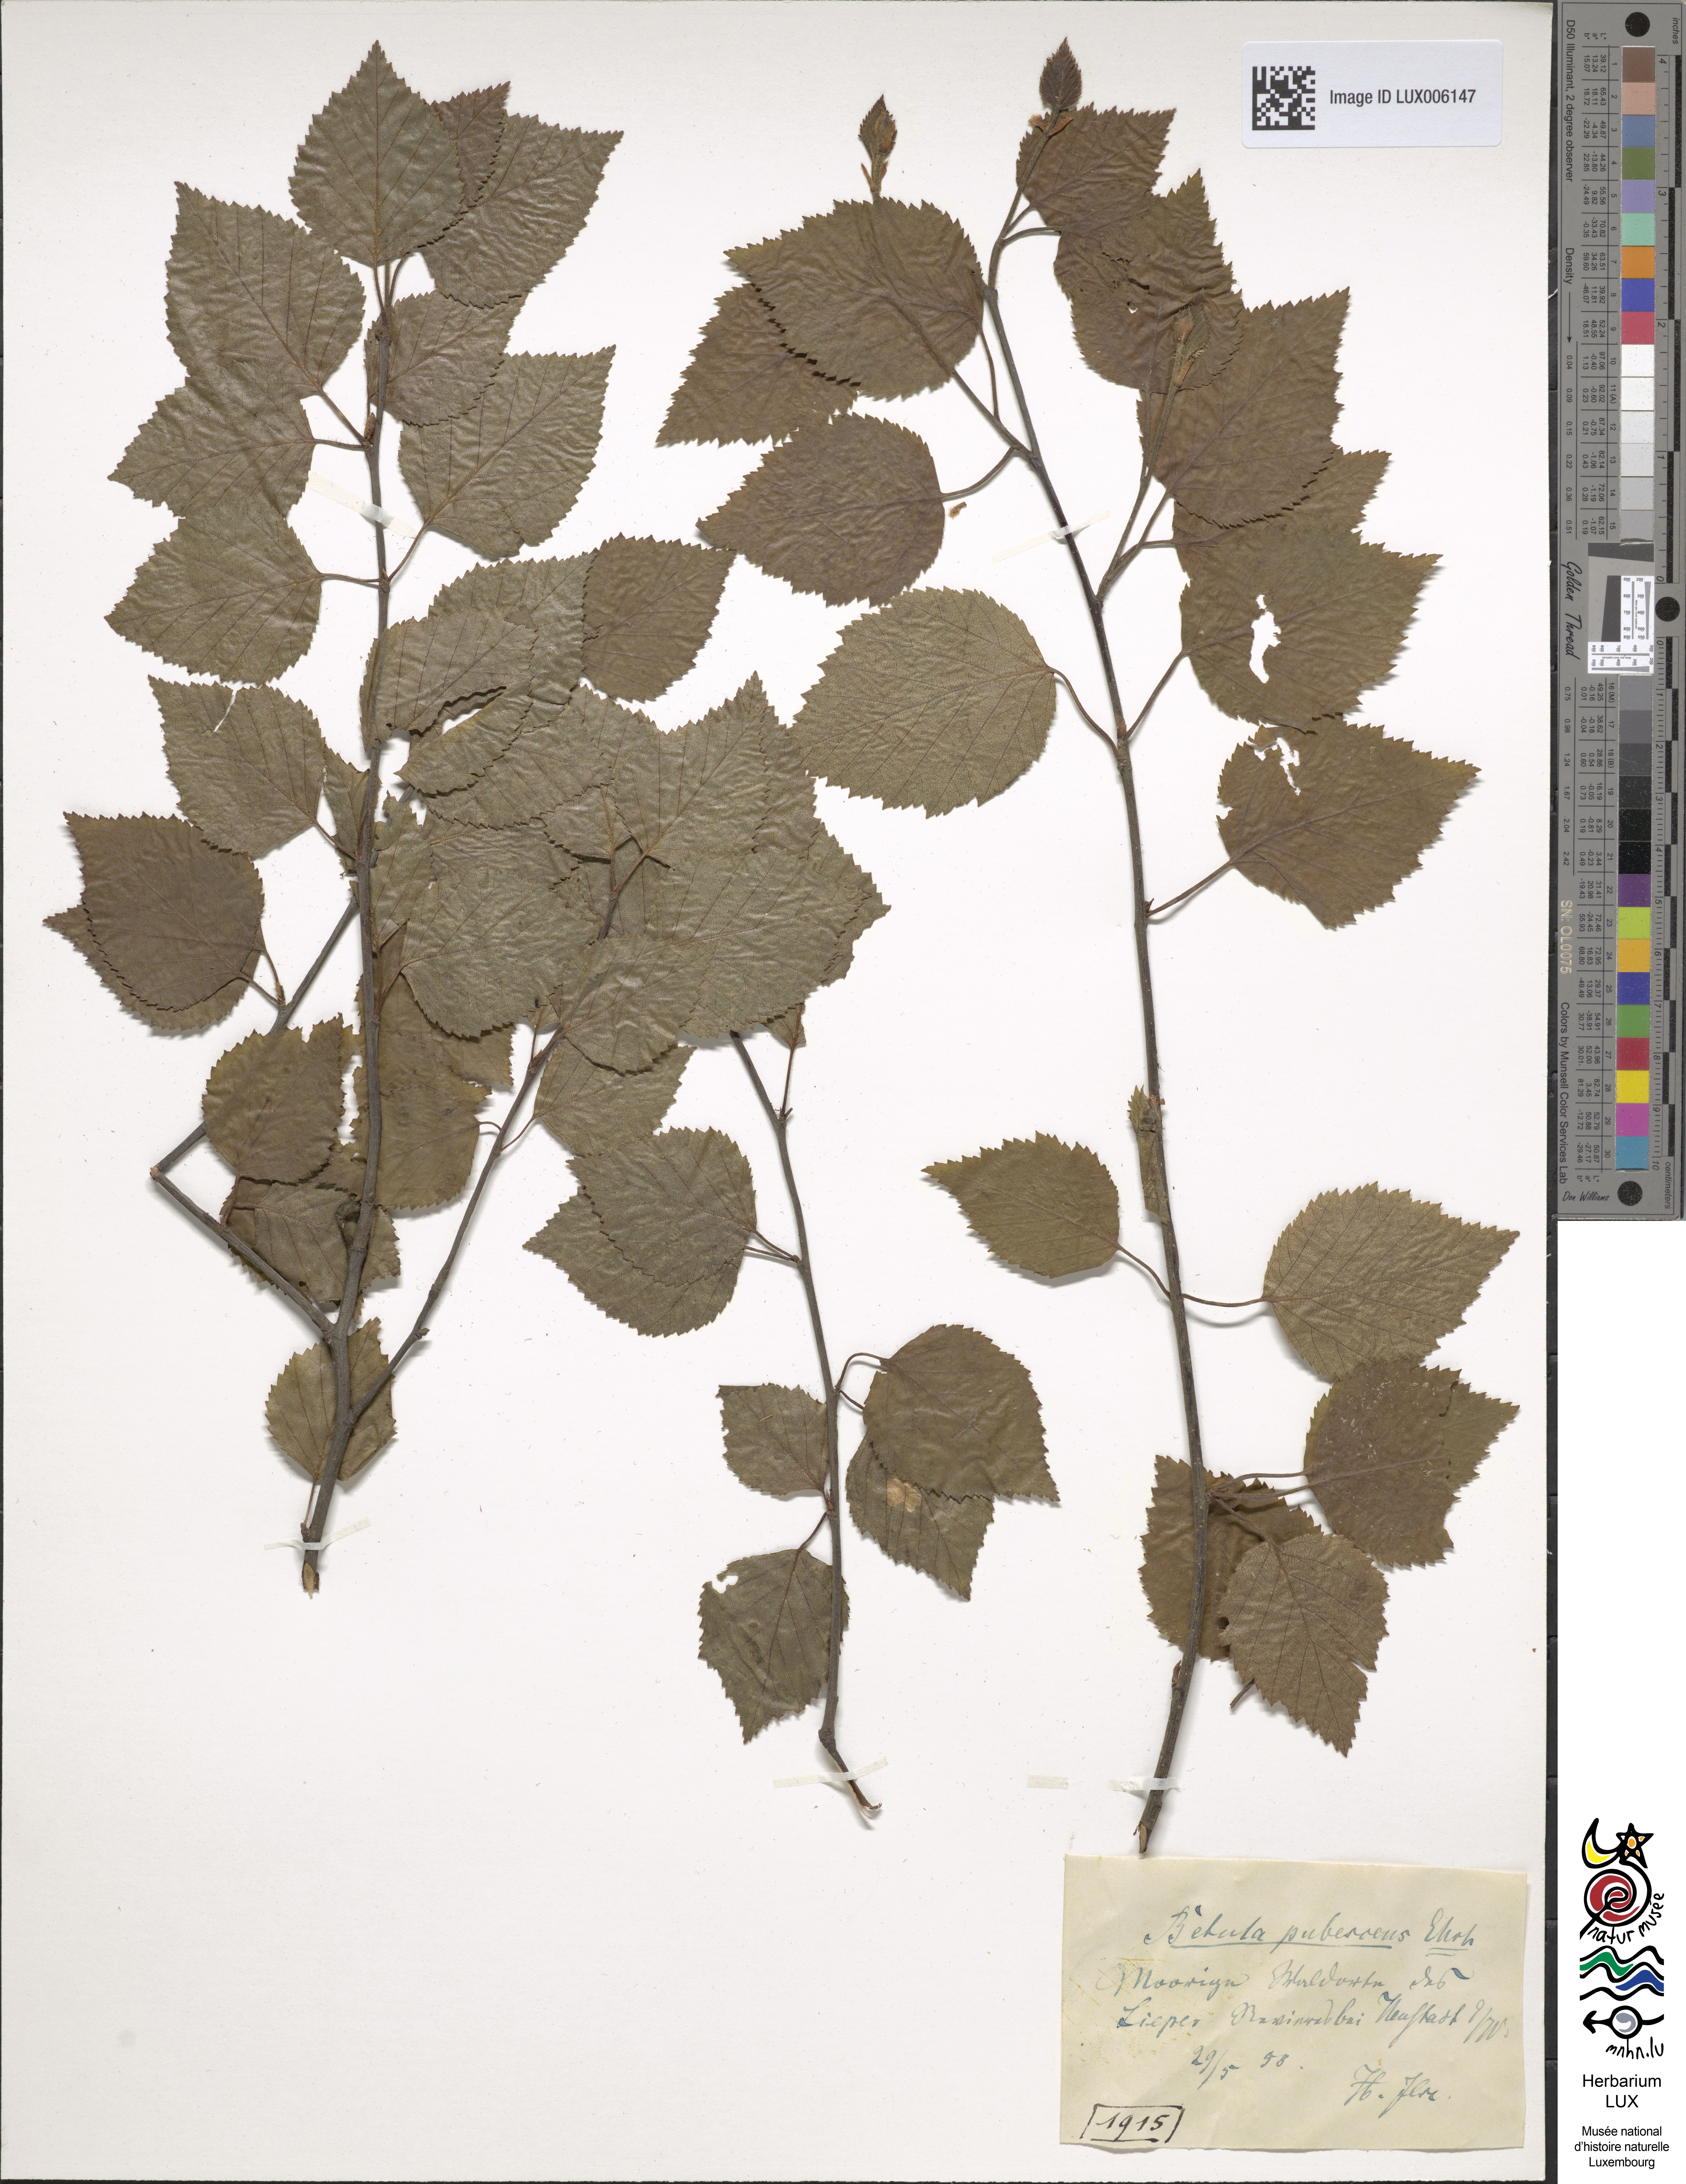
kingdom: Plantae
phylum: Tracheophyta
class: Magnoliopsida
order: Fagales
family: Betulaceae
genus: Betula
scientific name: Betula pubescens
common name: Downy birch
